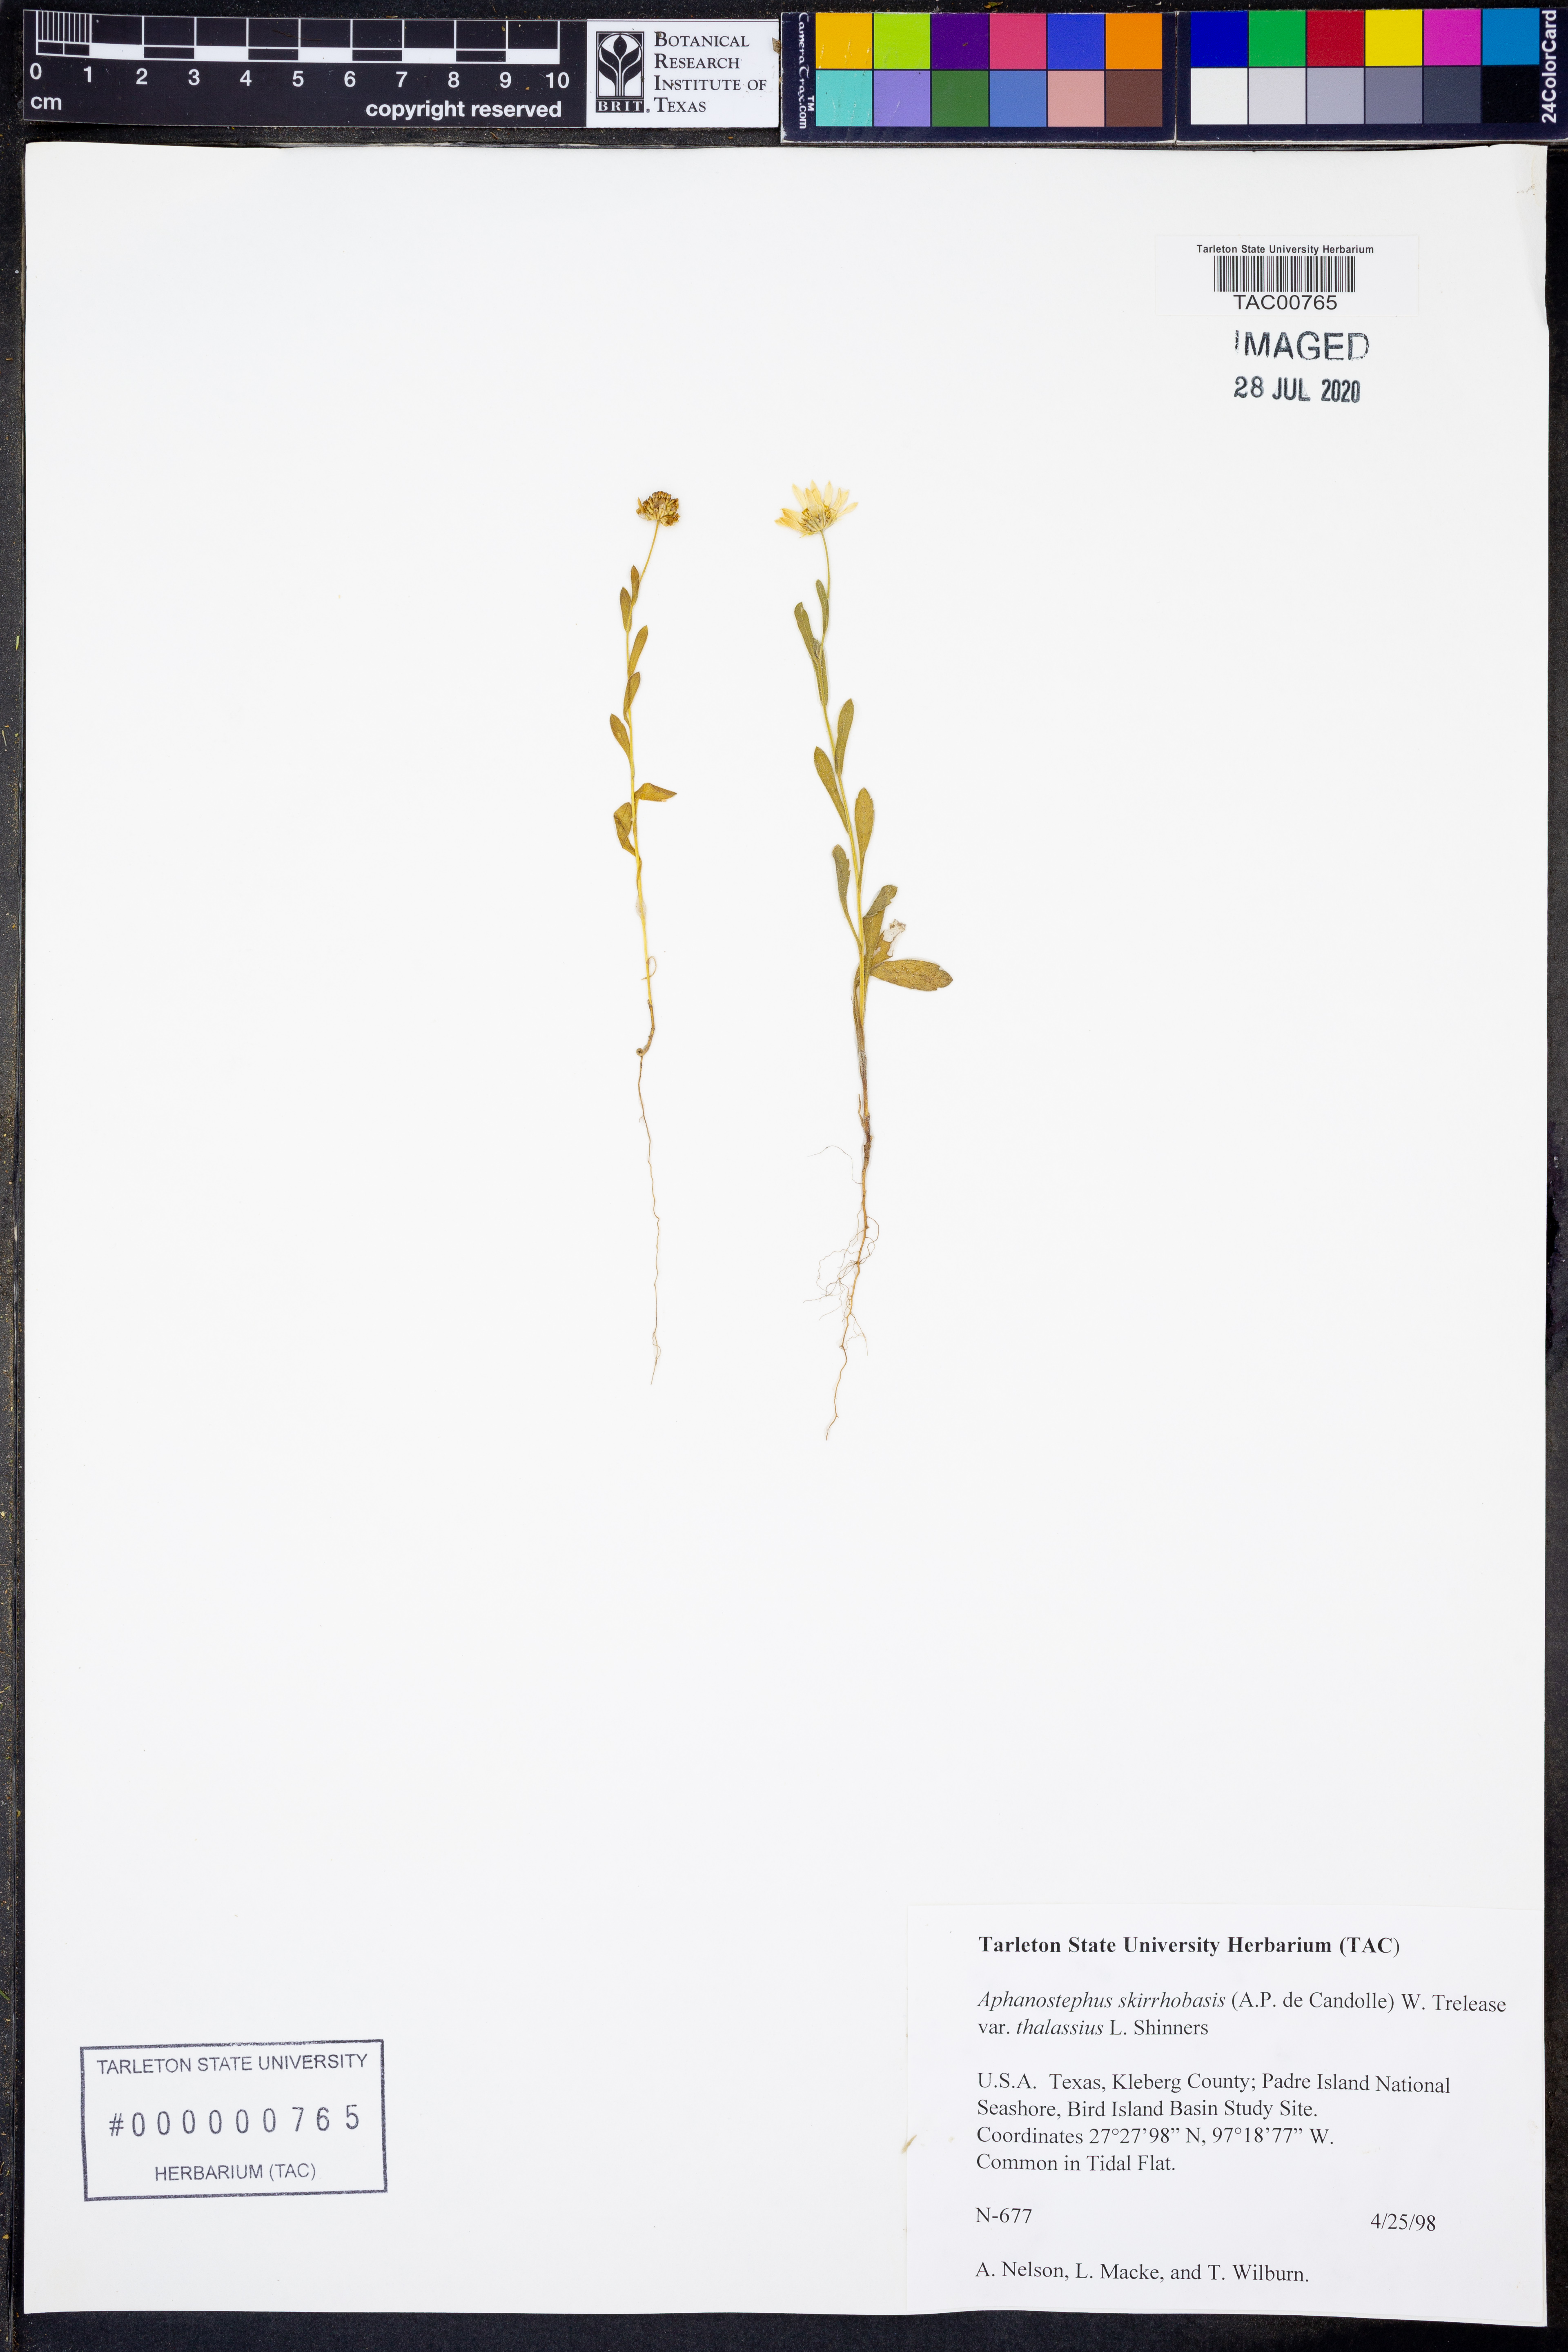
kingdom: Plantae
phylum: Tracheophyta
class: Magnoliopsida
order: Asterales
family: Asteraceae
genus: Aphanostephus
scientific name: Aphanostephus skirrhobasis
